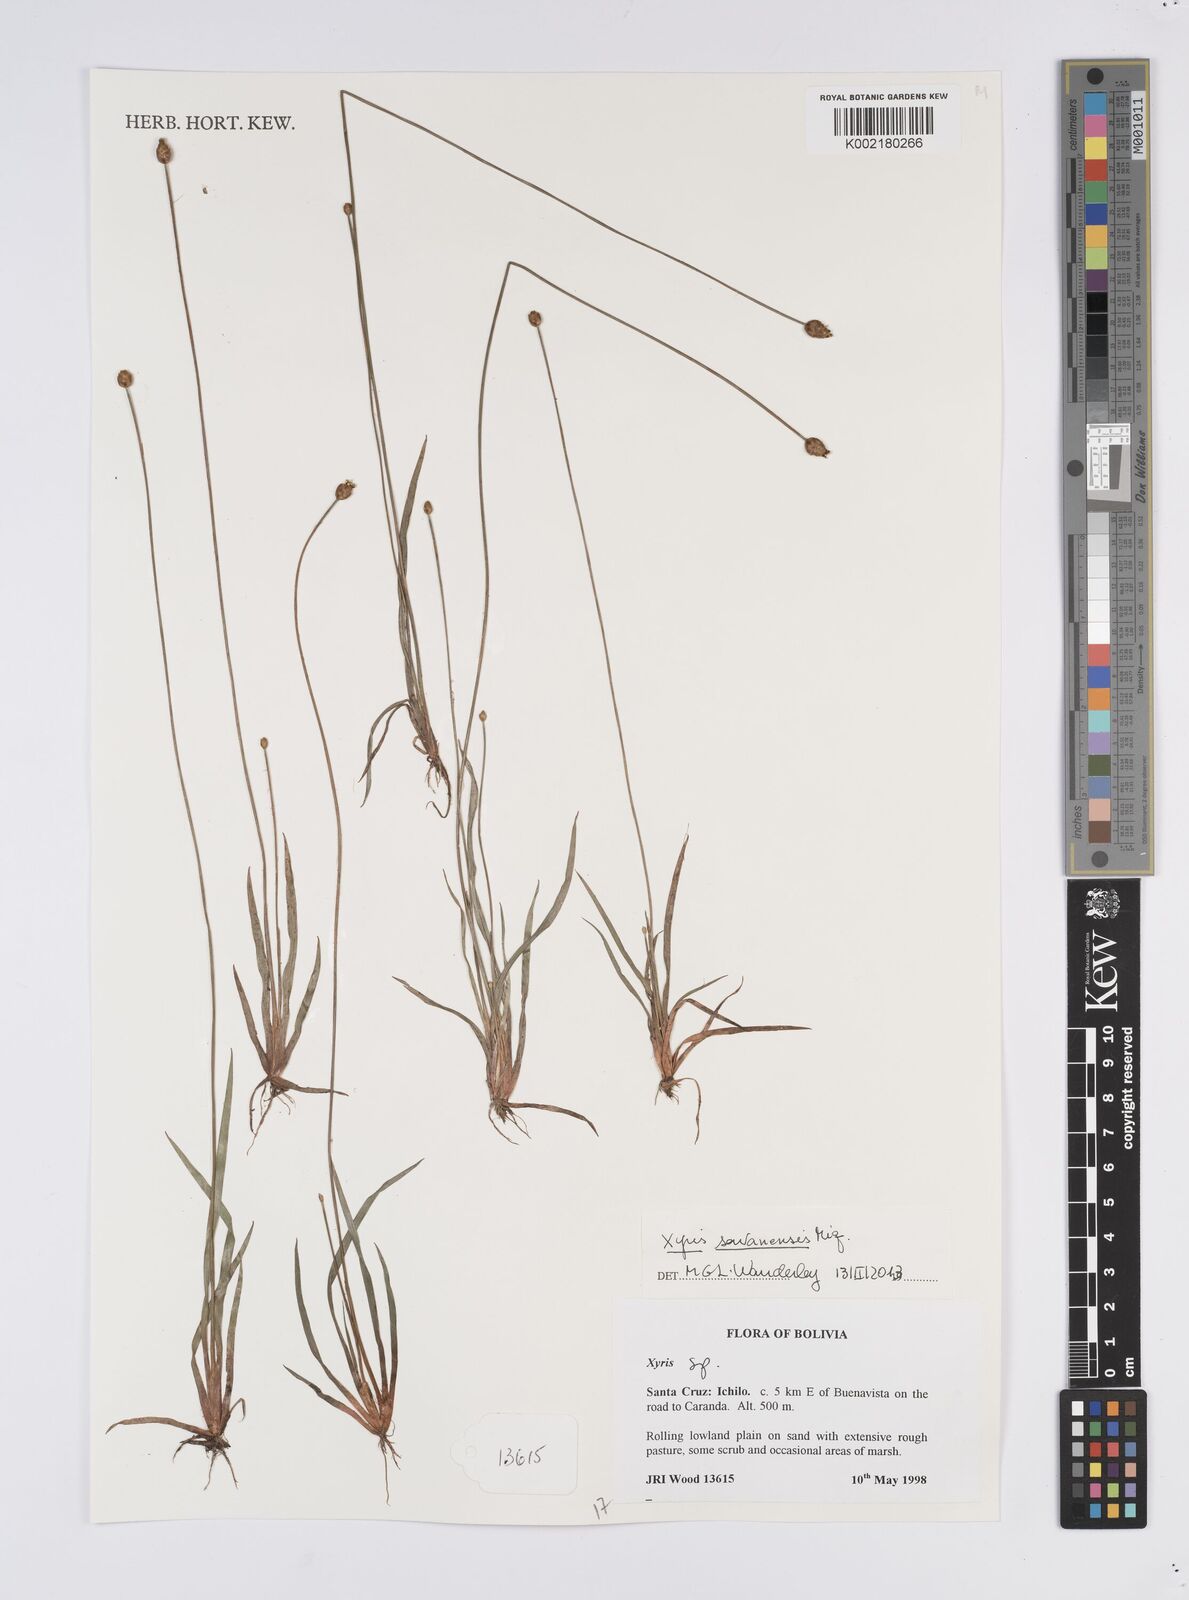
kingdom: Plantae
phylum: Tracheophyta
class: Liliopsida
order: Poales
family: Xyridaceae
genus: Xyris
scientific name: Xyris savanensis
